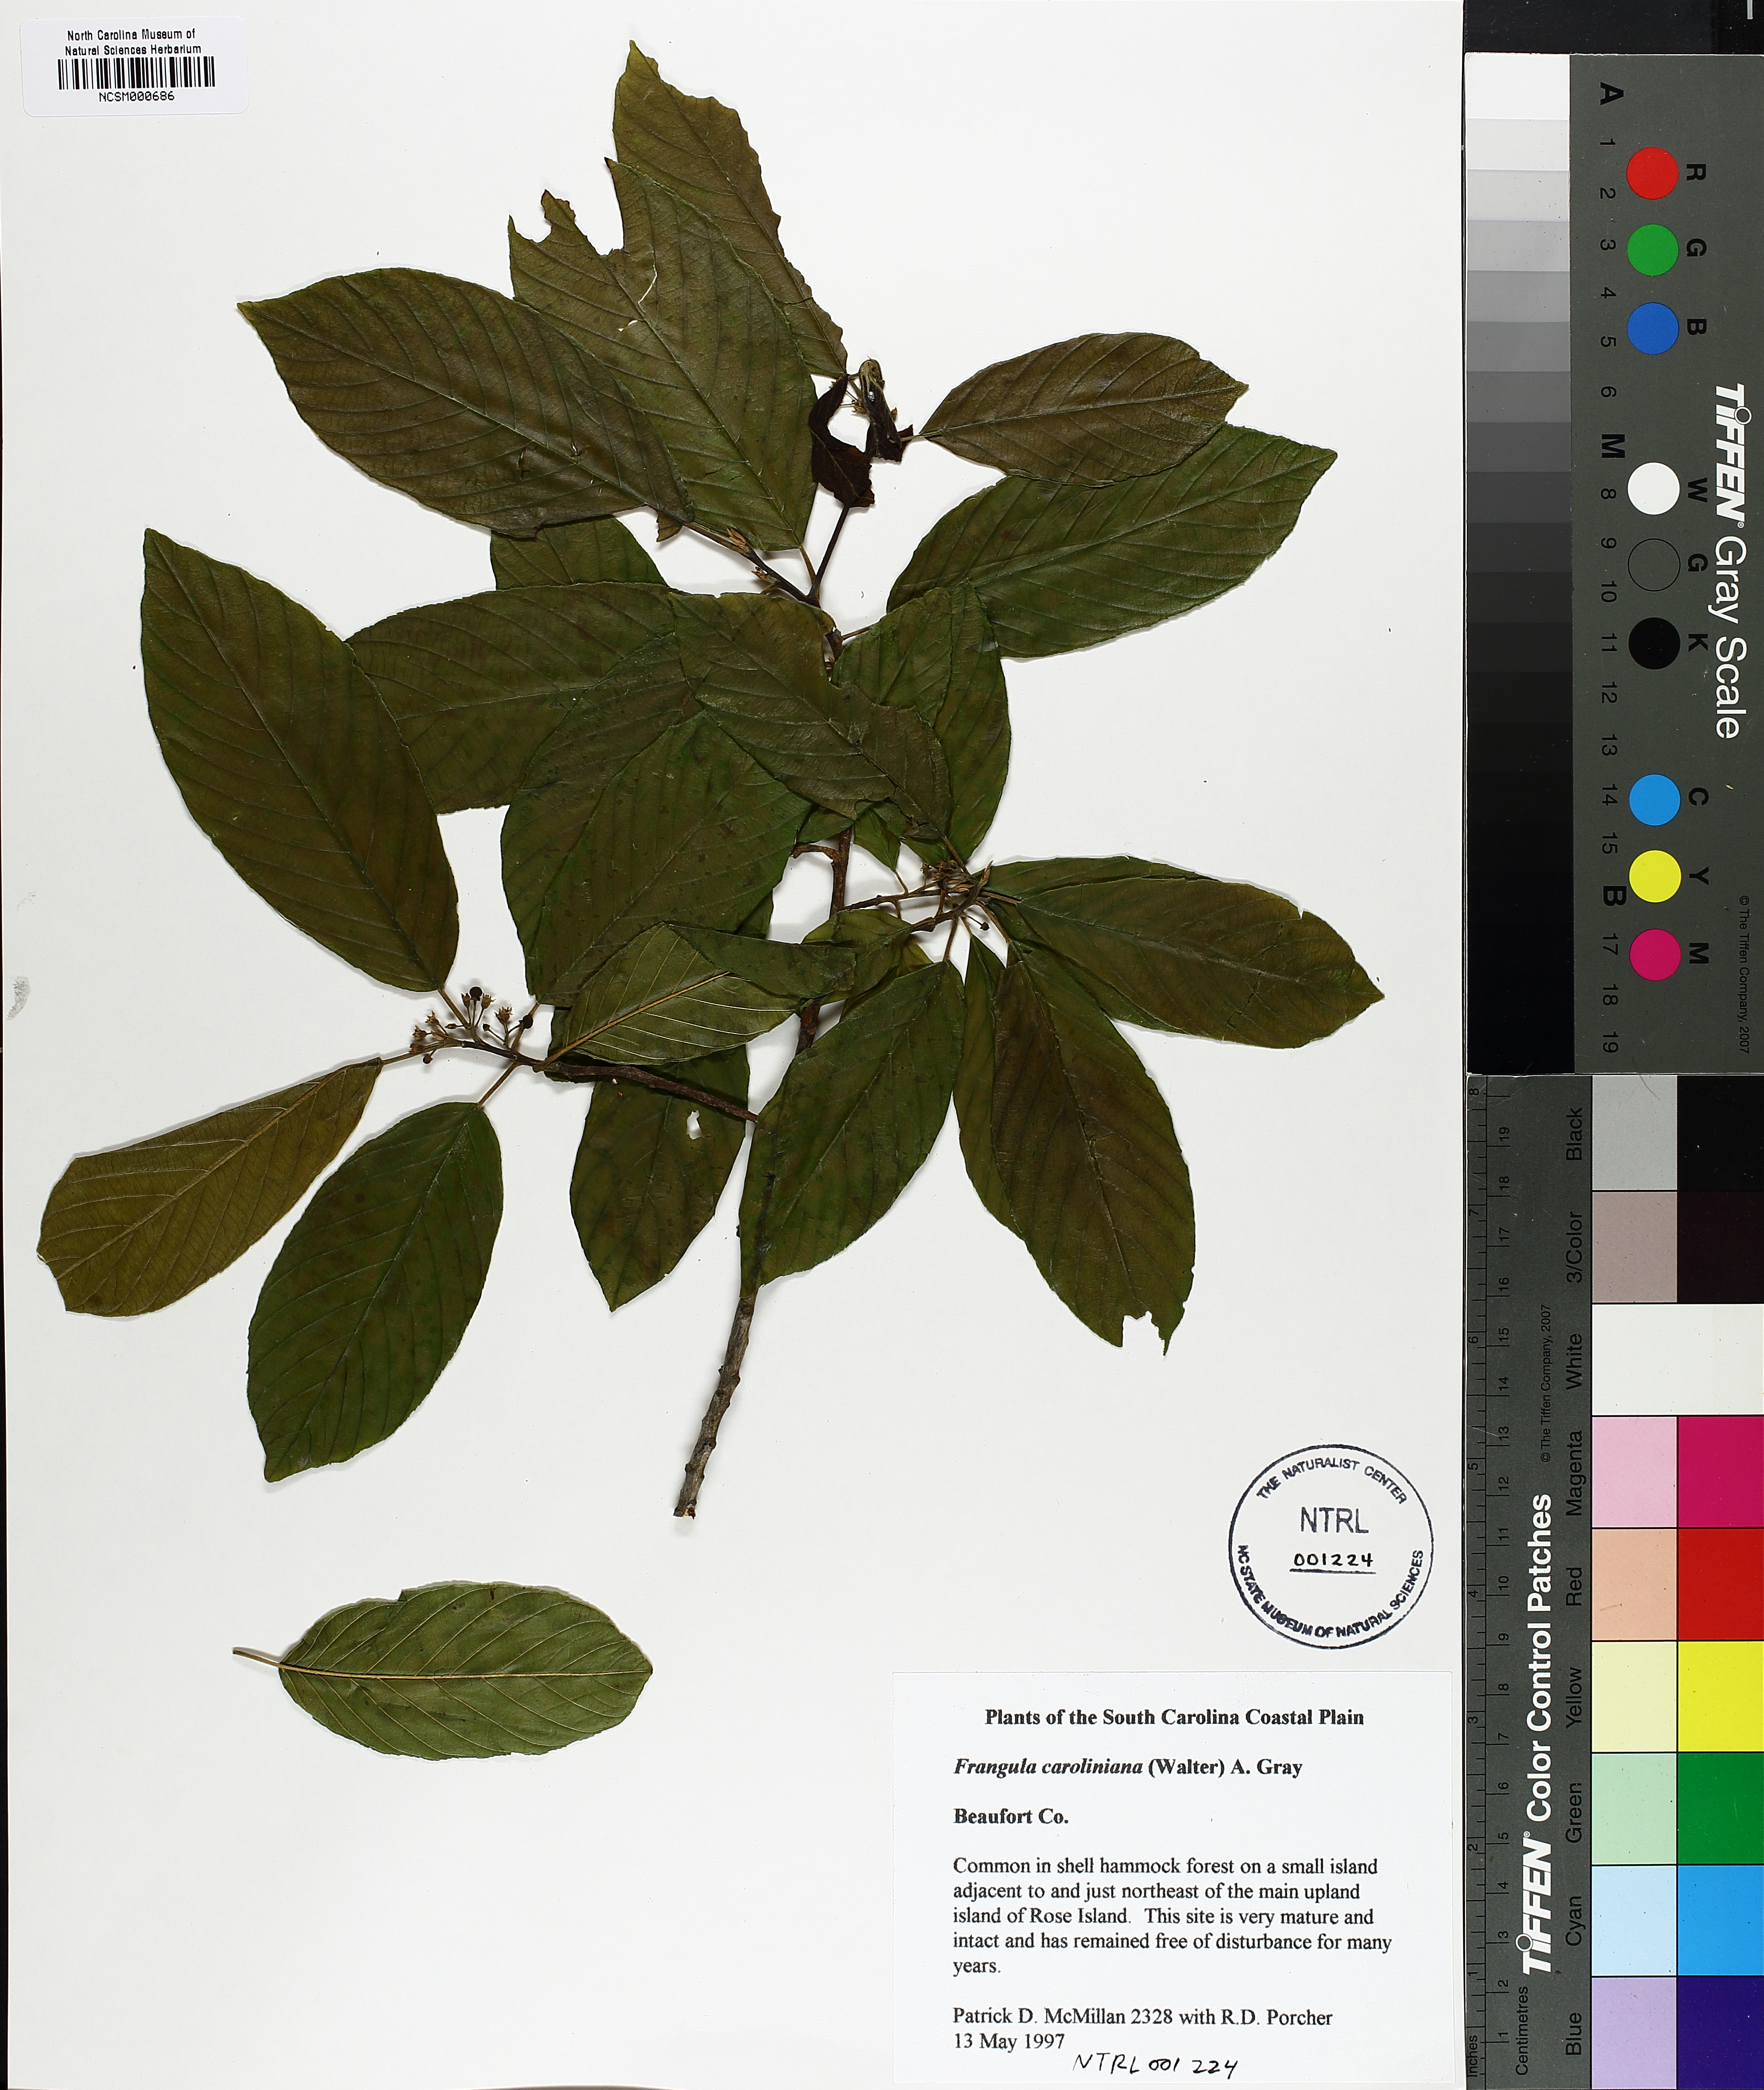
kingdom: Plantae
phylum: Tracheophyta
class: Magnoliopsida
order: Rosales
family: Rhamnaceae
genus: Frangula
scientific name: Frangula caroliniana
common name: Carolina buckthorn
